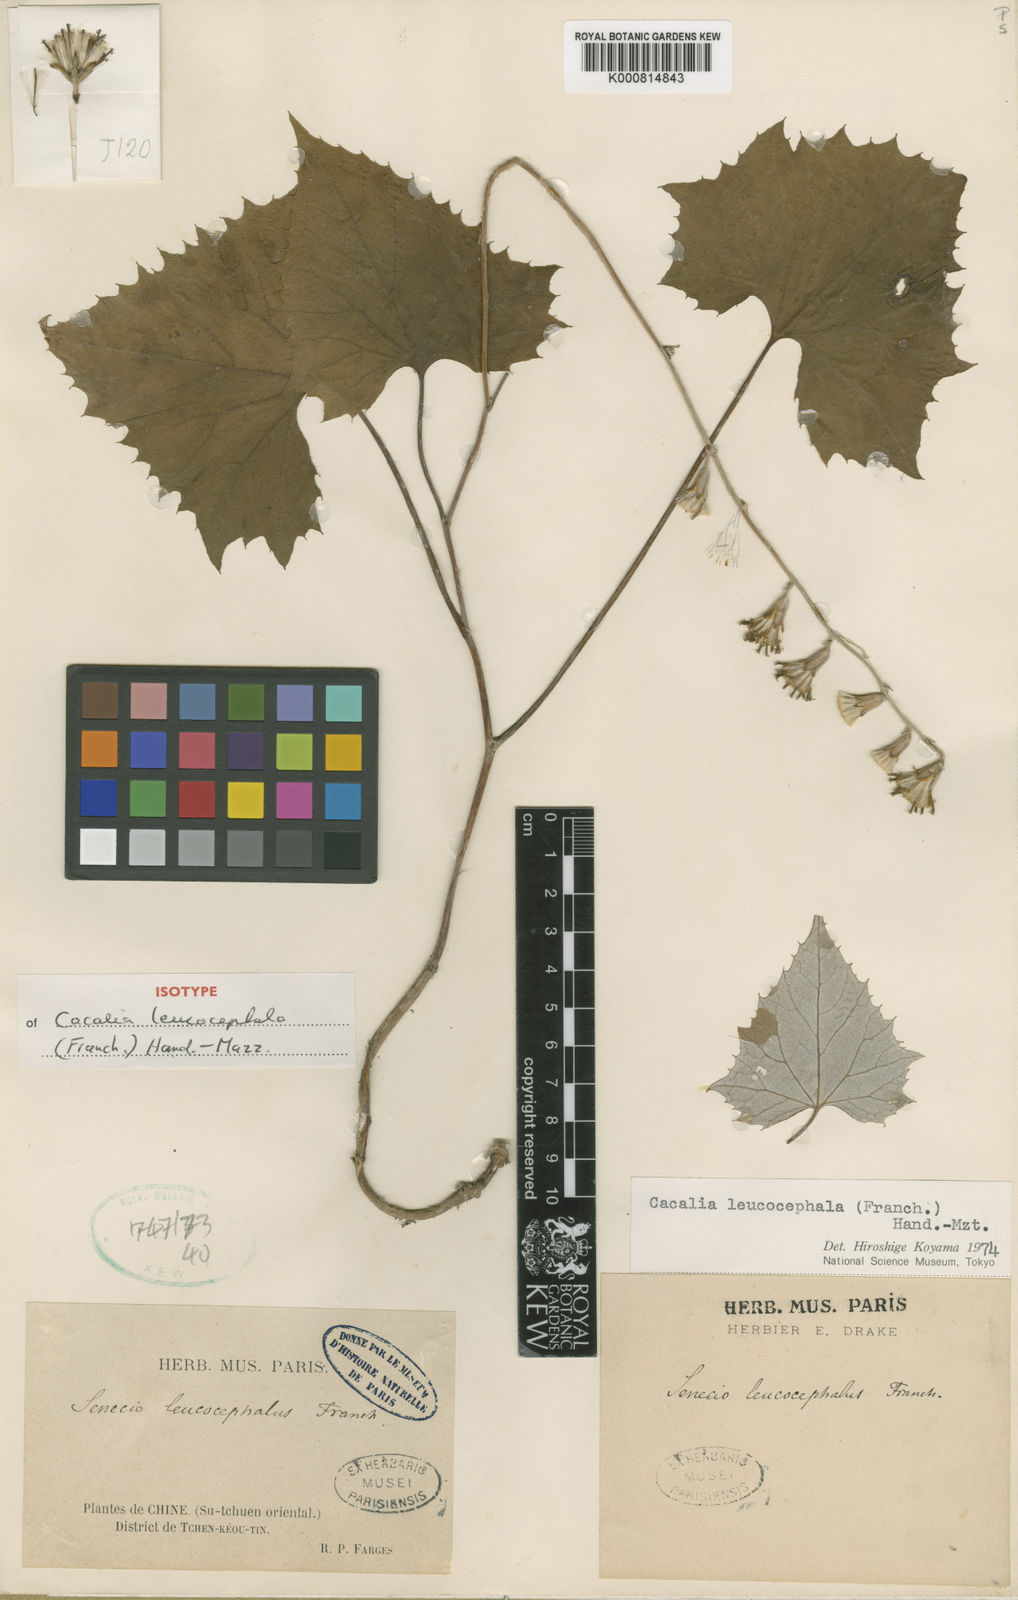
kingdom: Plantae
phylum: Tracheophyta
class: Magnoliopsida
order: Asterales
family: Asteraceae
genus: Parasenecio
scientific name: Parasenecio leucocephalus
